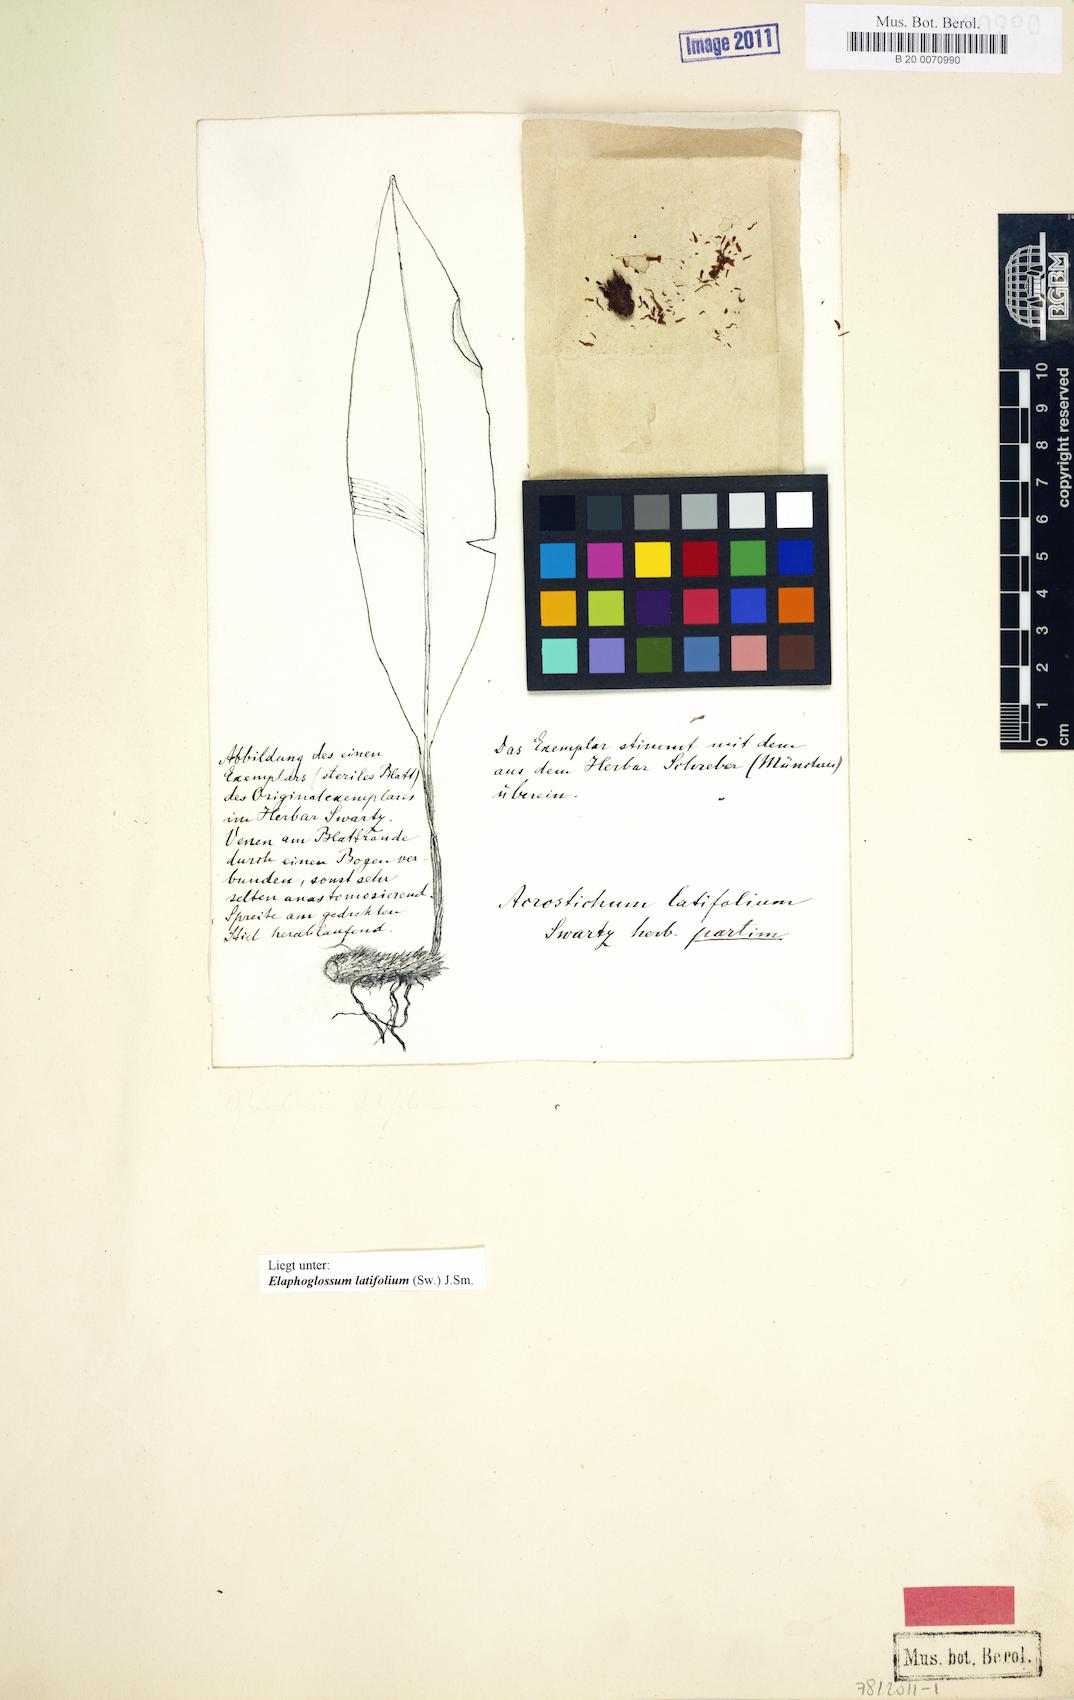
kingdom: Plantae
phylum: Tracheophyta
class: Polypodiopsida
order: Polypodiales
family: Dryopteridaceae
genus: Elaphoglossum
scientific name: Elaphoglossum latifolium
